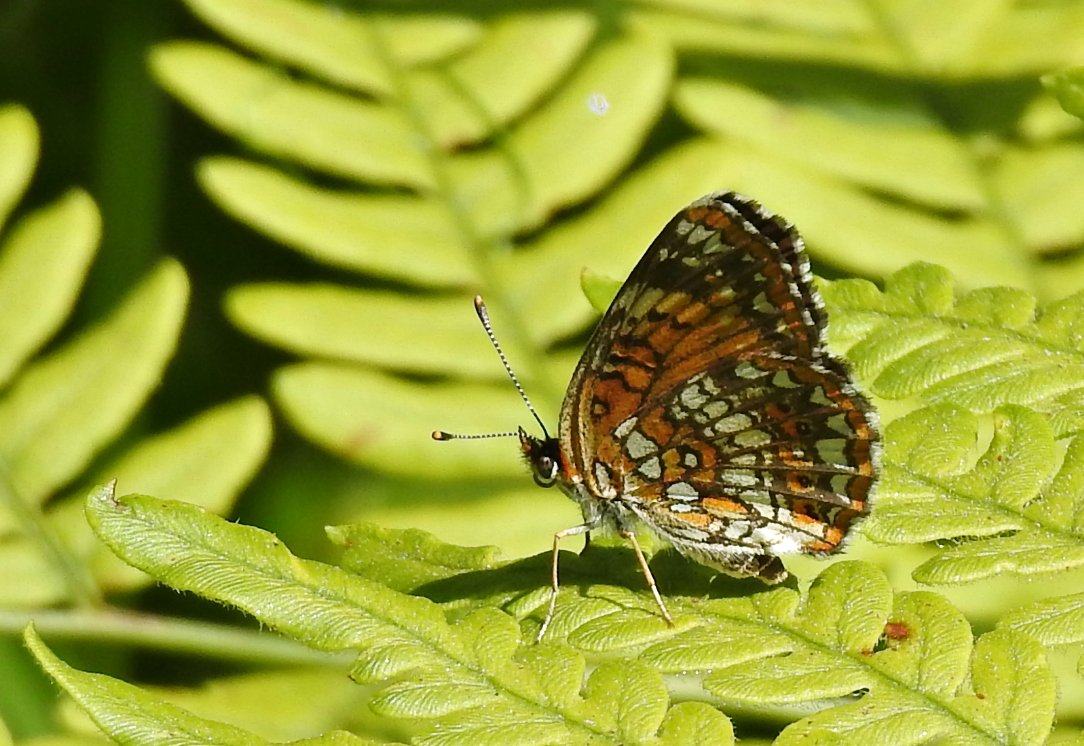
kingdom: Animalia
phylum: Arthropoda
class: Insecta
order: Lepidoptera
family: Nymphalidae
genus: Chlosyne
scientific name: Chlosyne harrisii
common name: Harris's Checkerspot
